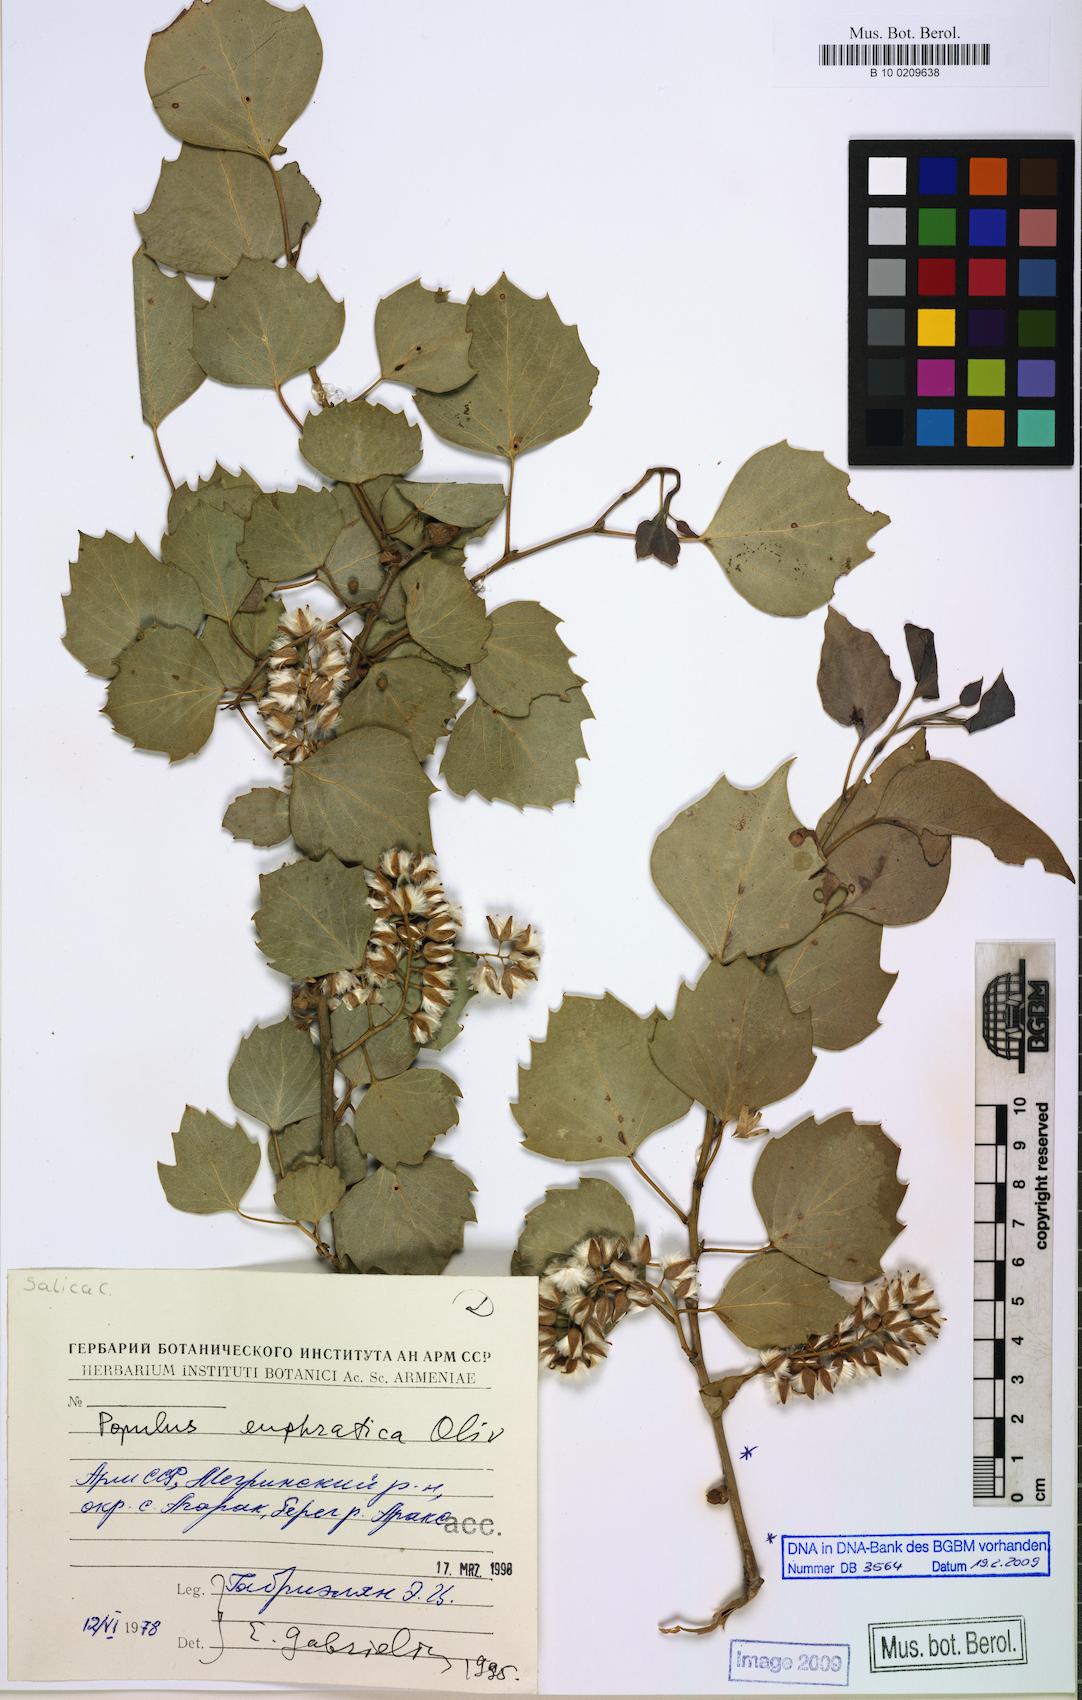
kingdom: Plantae
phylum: Tracheophyta
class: Magnoliopsida
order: Malpighiales
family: Salicaceae
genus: Populus
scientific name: Populus euphratica
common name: Euphrates poplar
